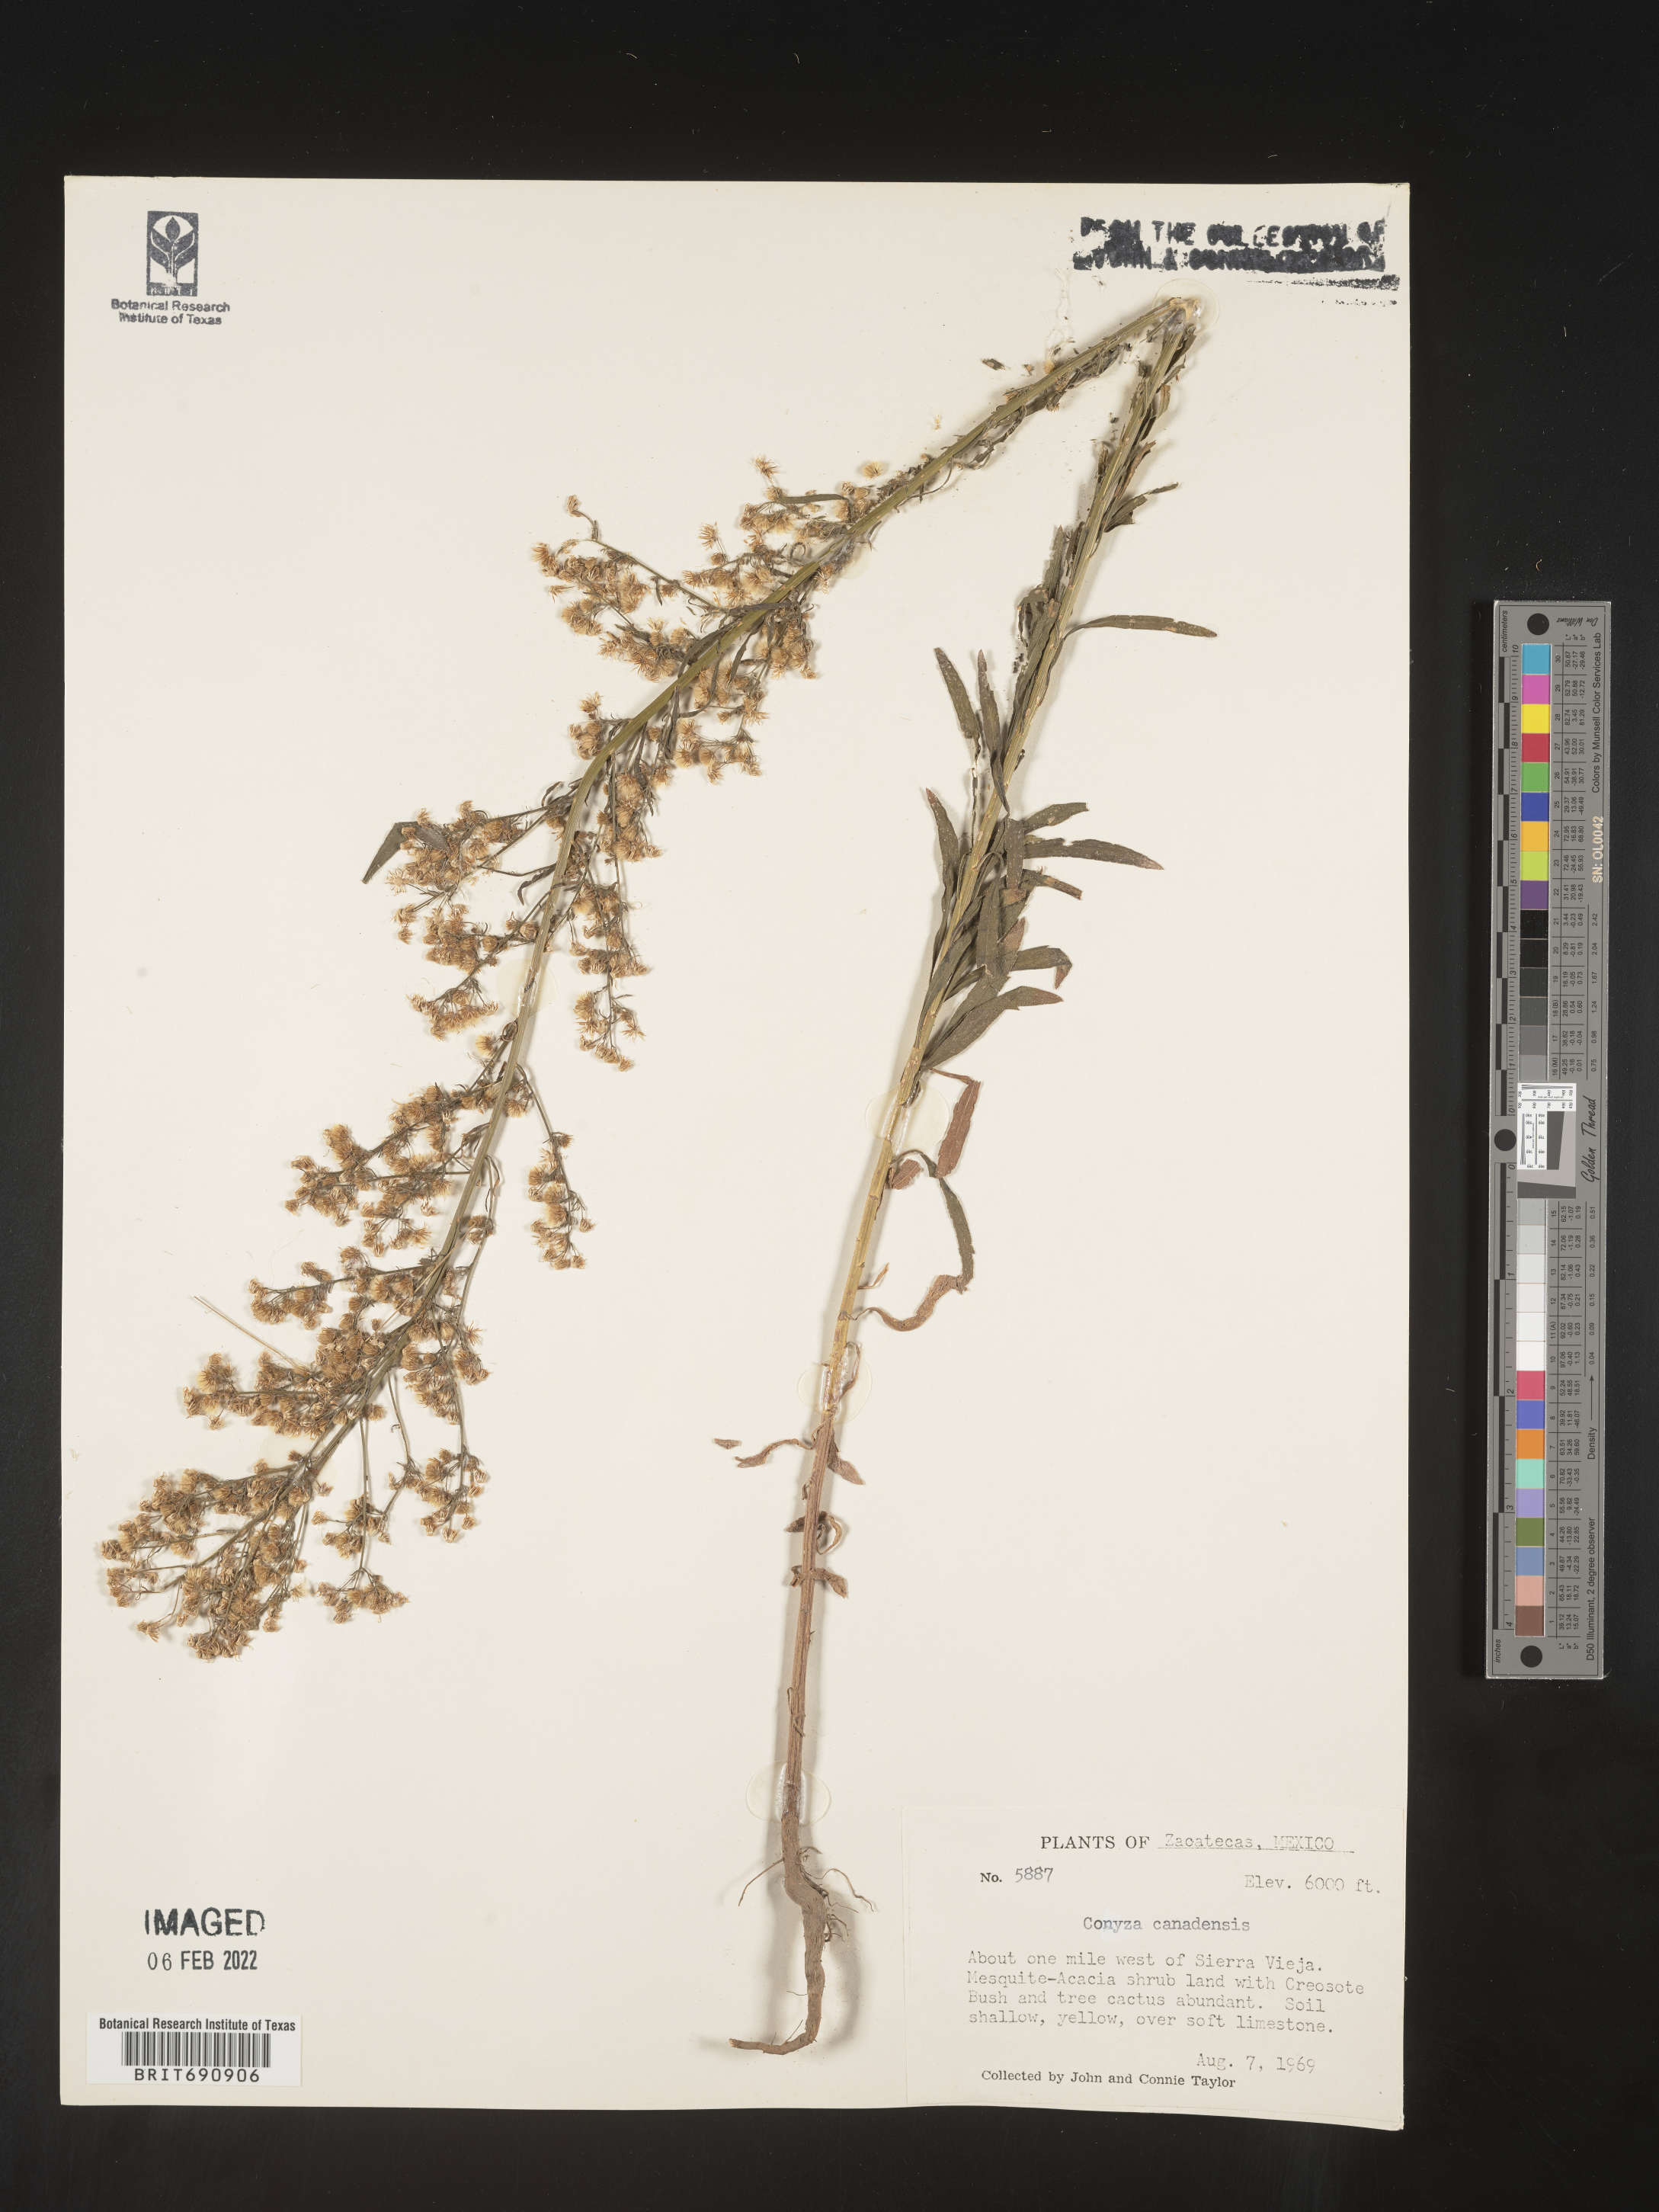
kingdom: Plantae
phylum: Tracheophyta
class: Magnoliopsida
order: Asterales
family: Asteraceae
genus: Erigeron
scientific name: Erigeron canadensis
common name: Canadian fleabane
